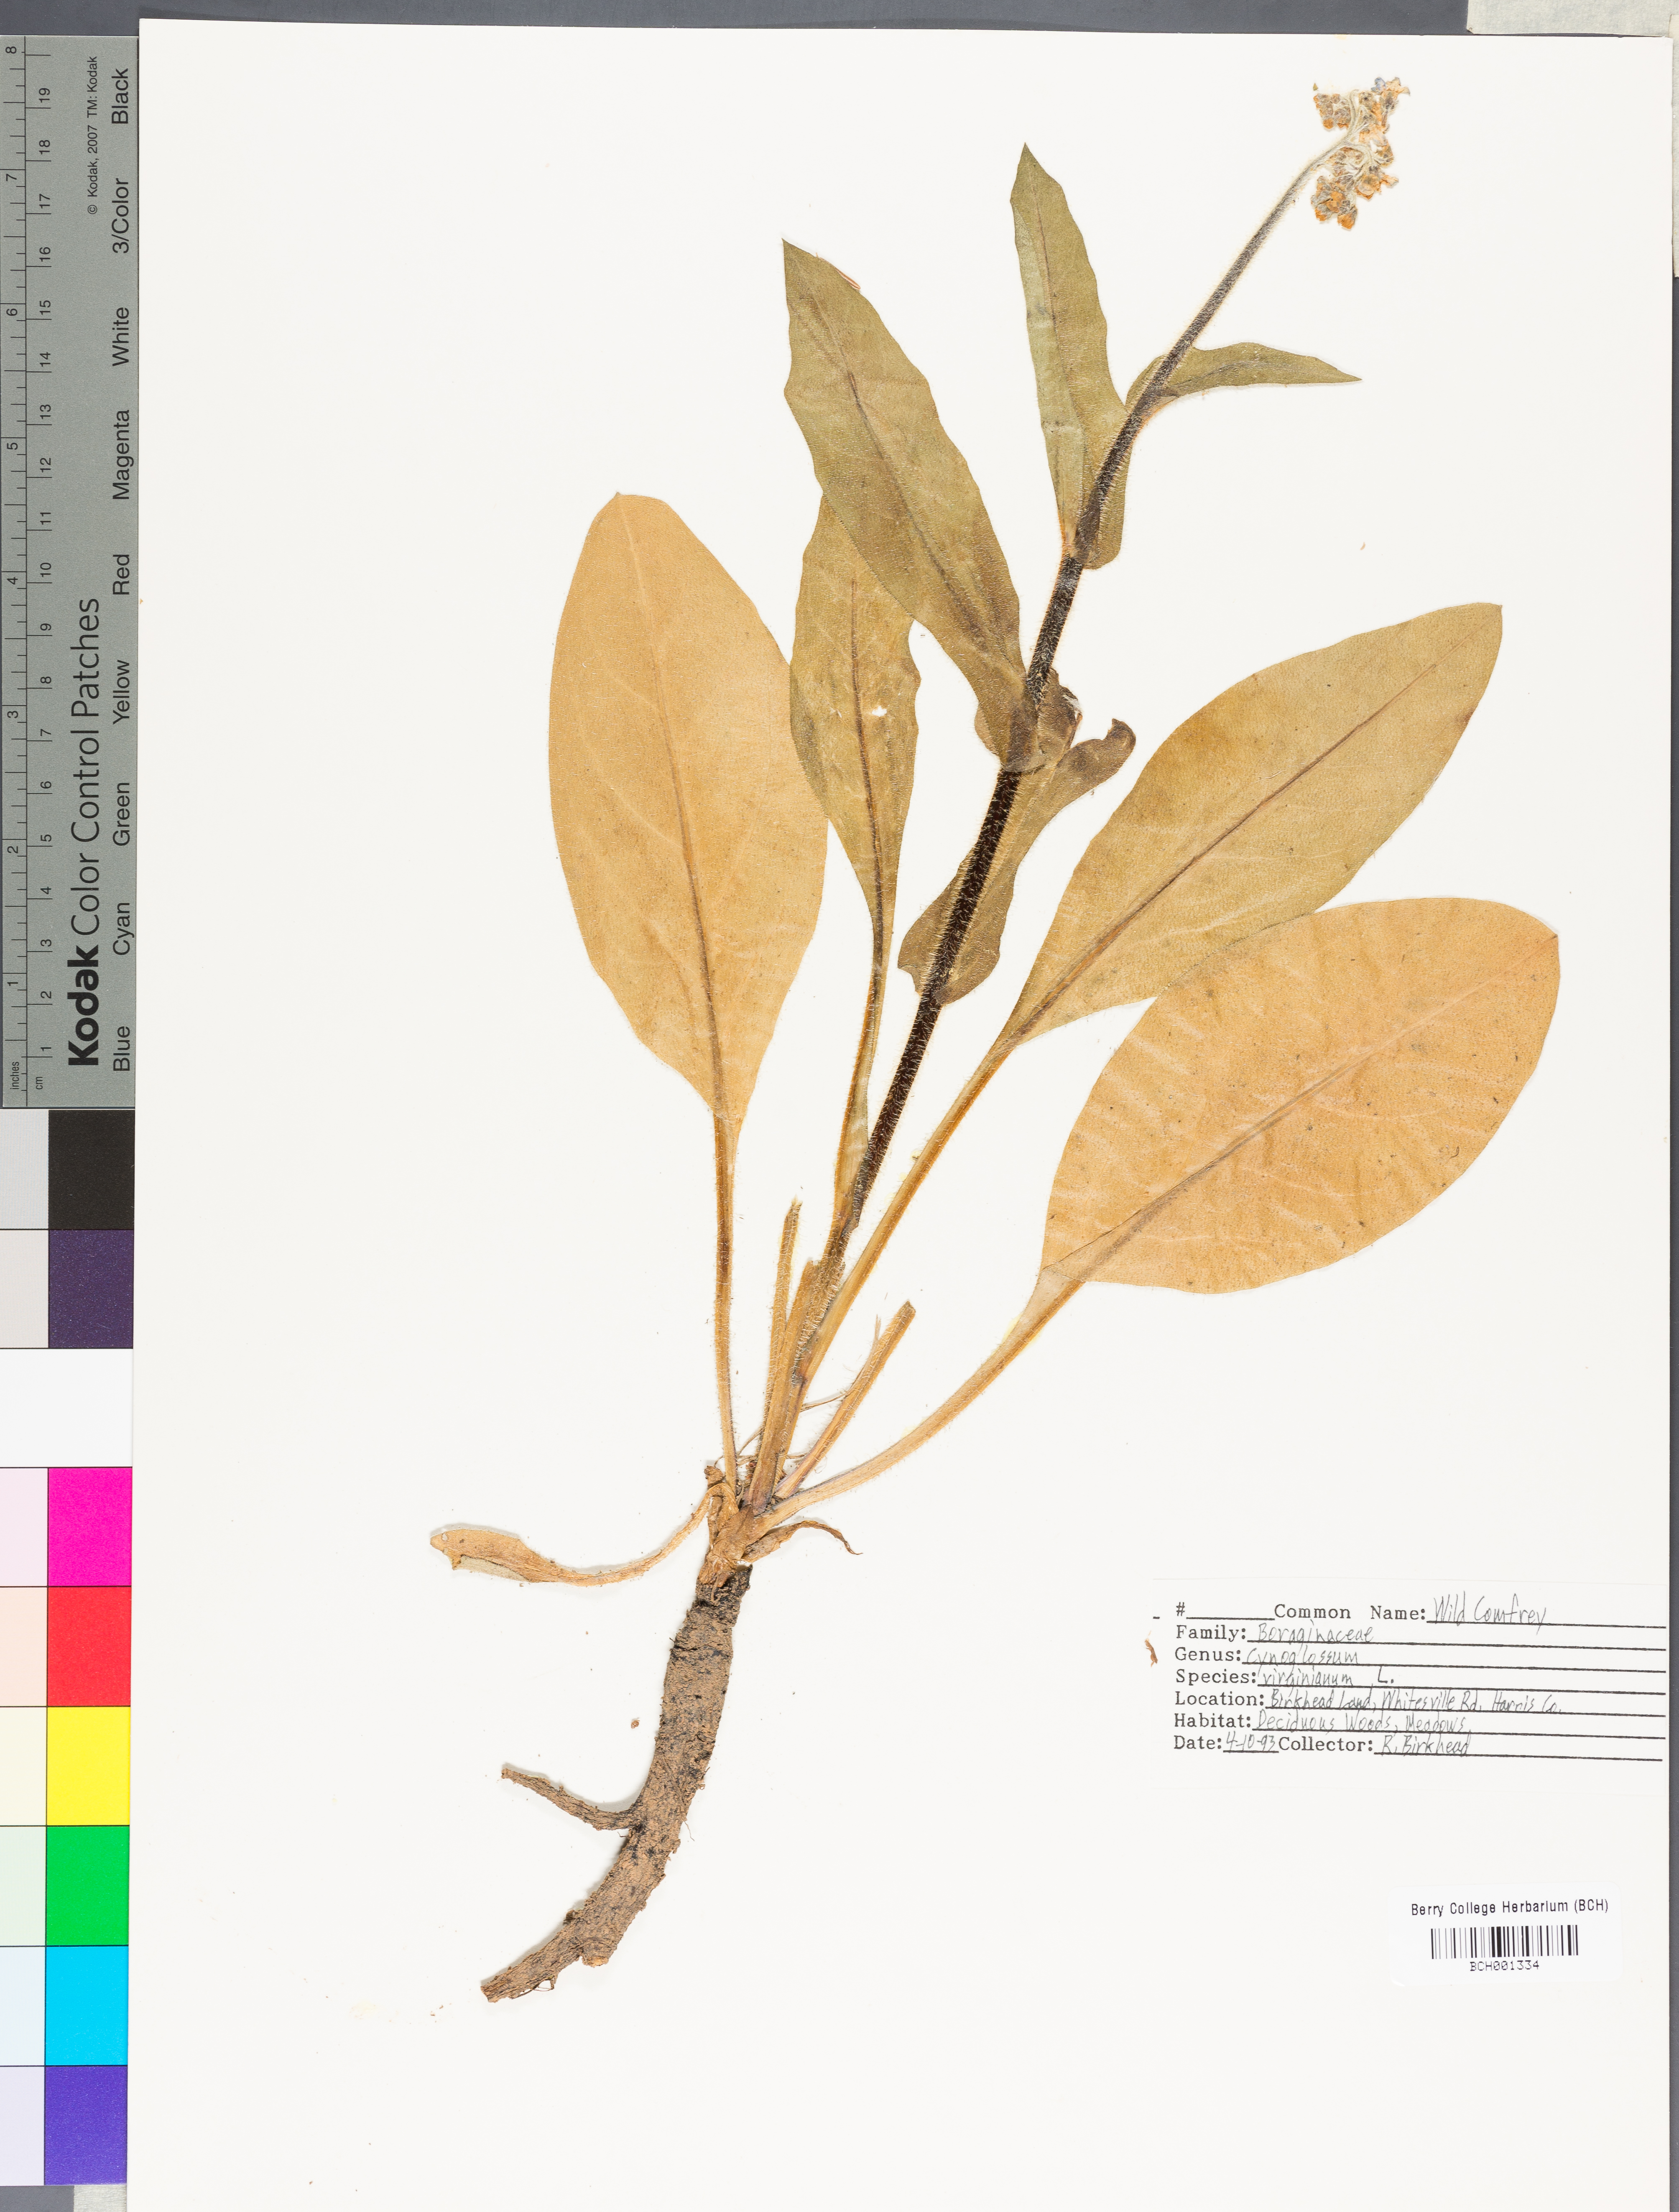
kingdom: Plantae
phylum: Tracheophyta
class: Magnoliopsida
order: Boraginales
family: Boraginaceae
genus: Andersonglossum
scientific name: Andersonglossum virginianum
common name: Wild comfrey
